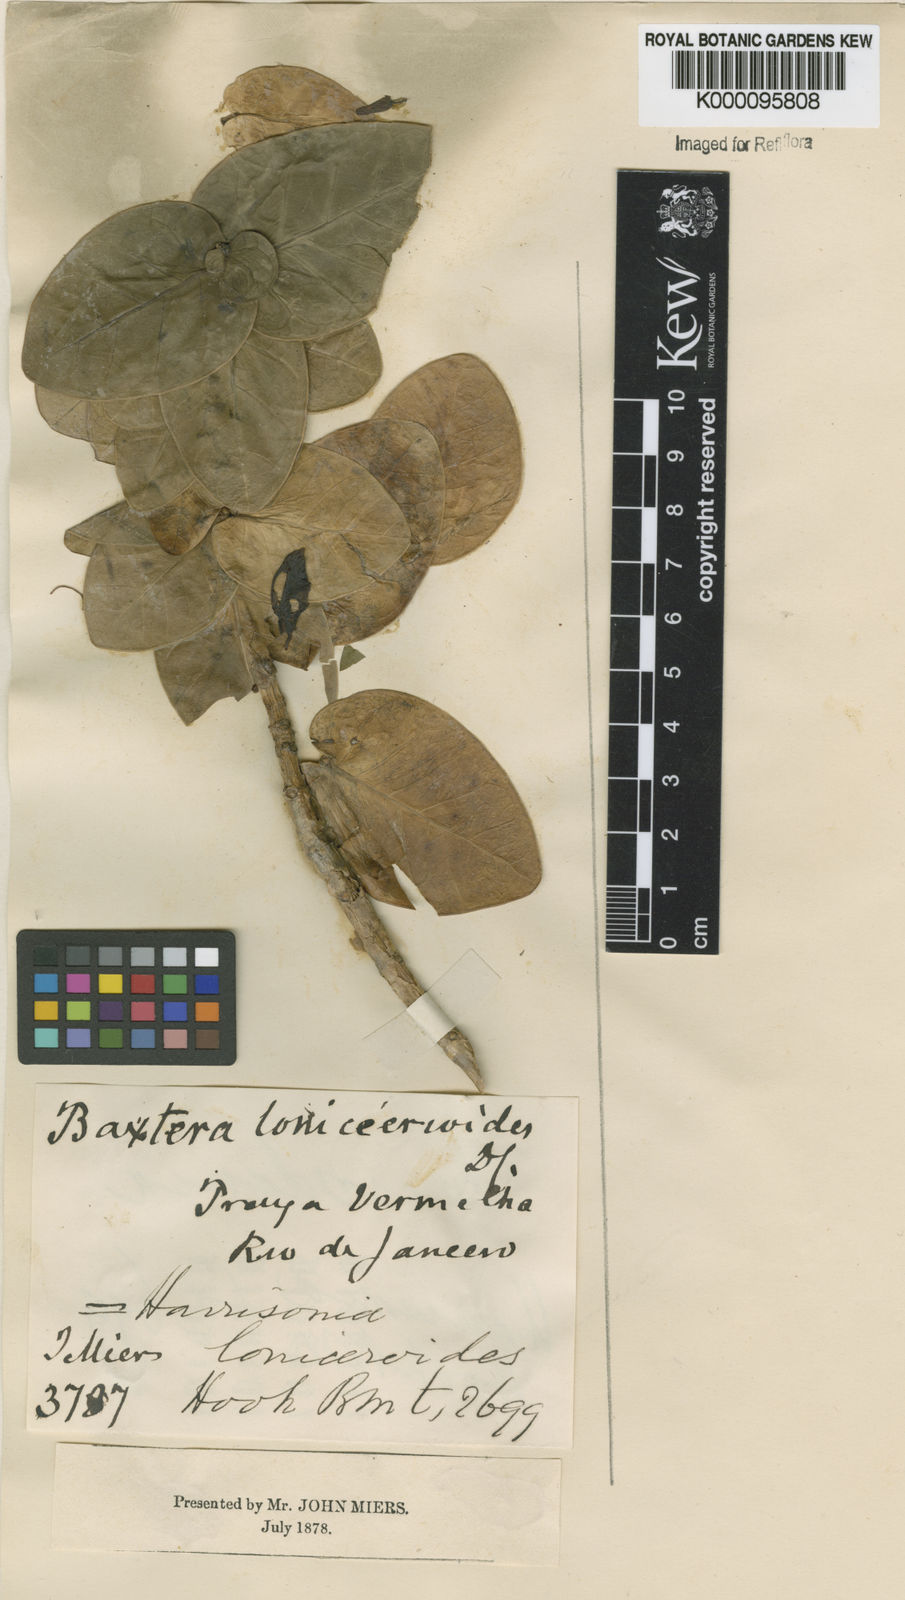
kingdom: Plantae
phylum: Tracheophyta
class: Magnoliopsida
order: Gentianales
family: Apocynaceae
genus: Ruehssia
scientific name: Ruehssia loniceroides
